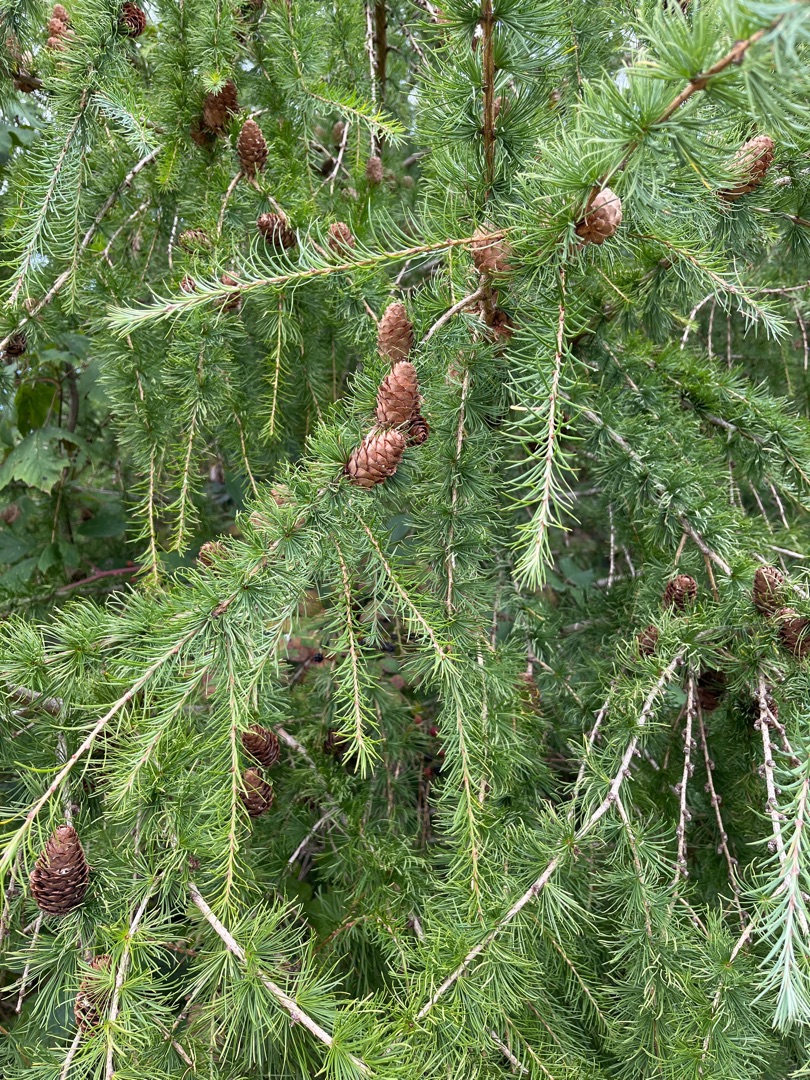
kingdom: Plantae
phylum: Tracheophyta
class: Pinopsida
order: Pinales
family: Pinaceae
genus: Larix
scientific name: Larix marschlinsii
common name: Hybrid-lærk
